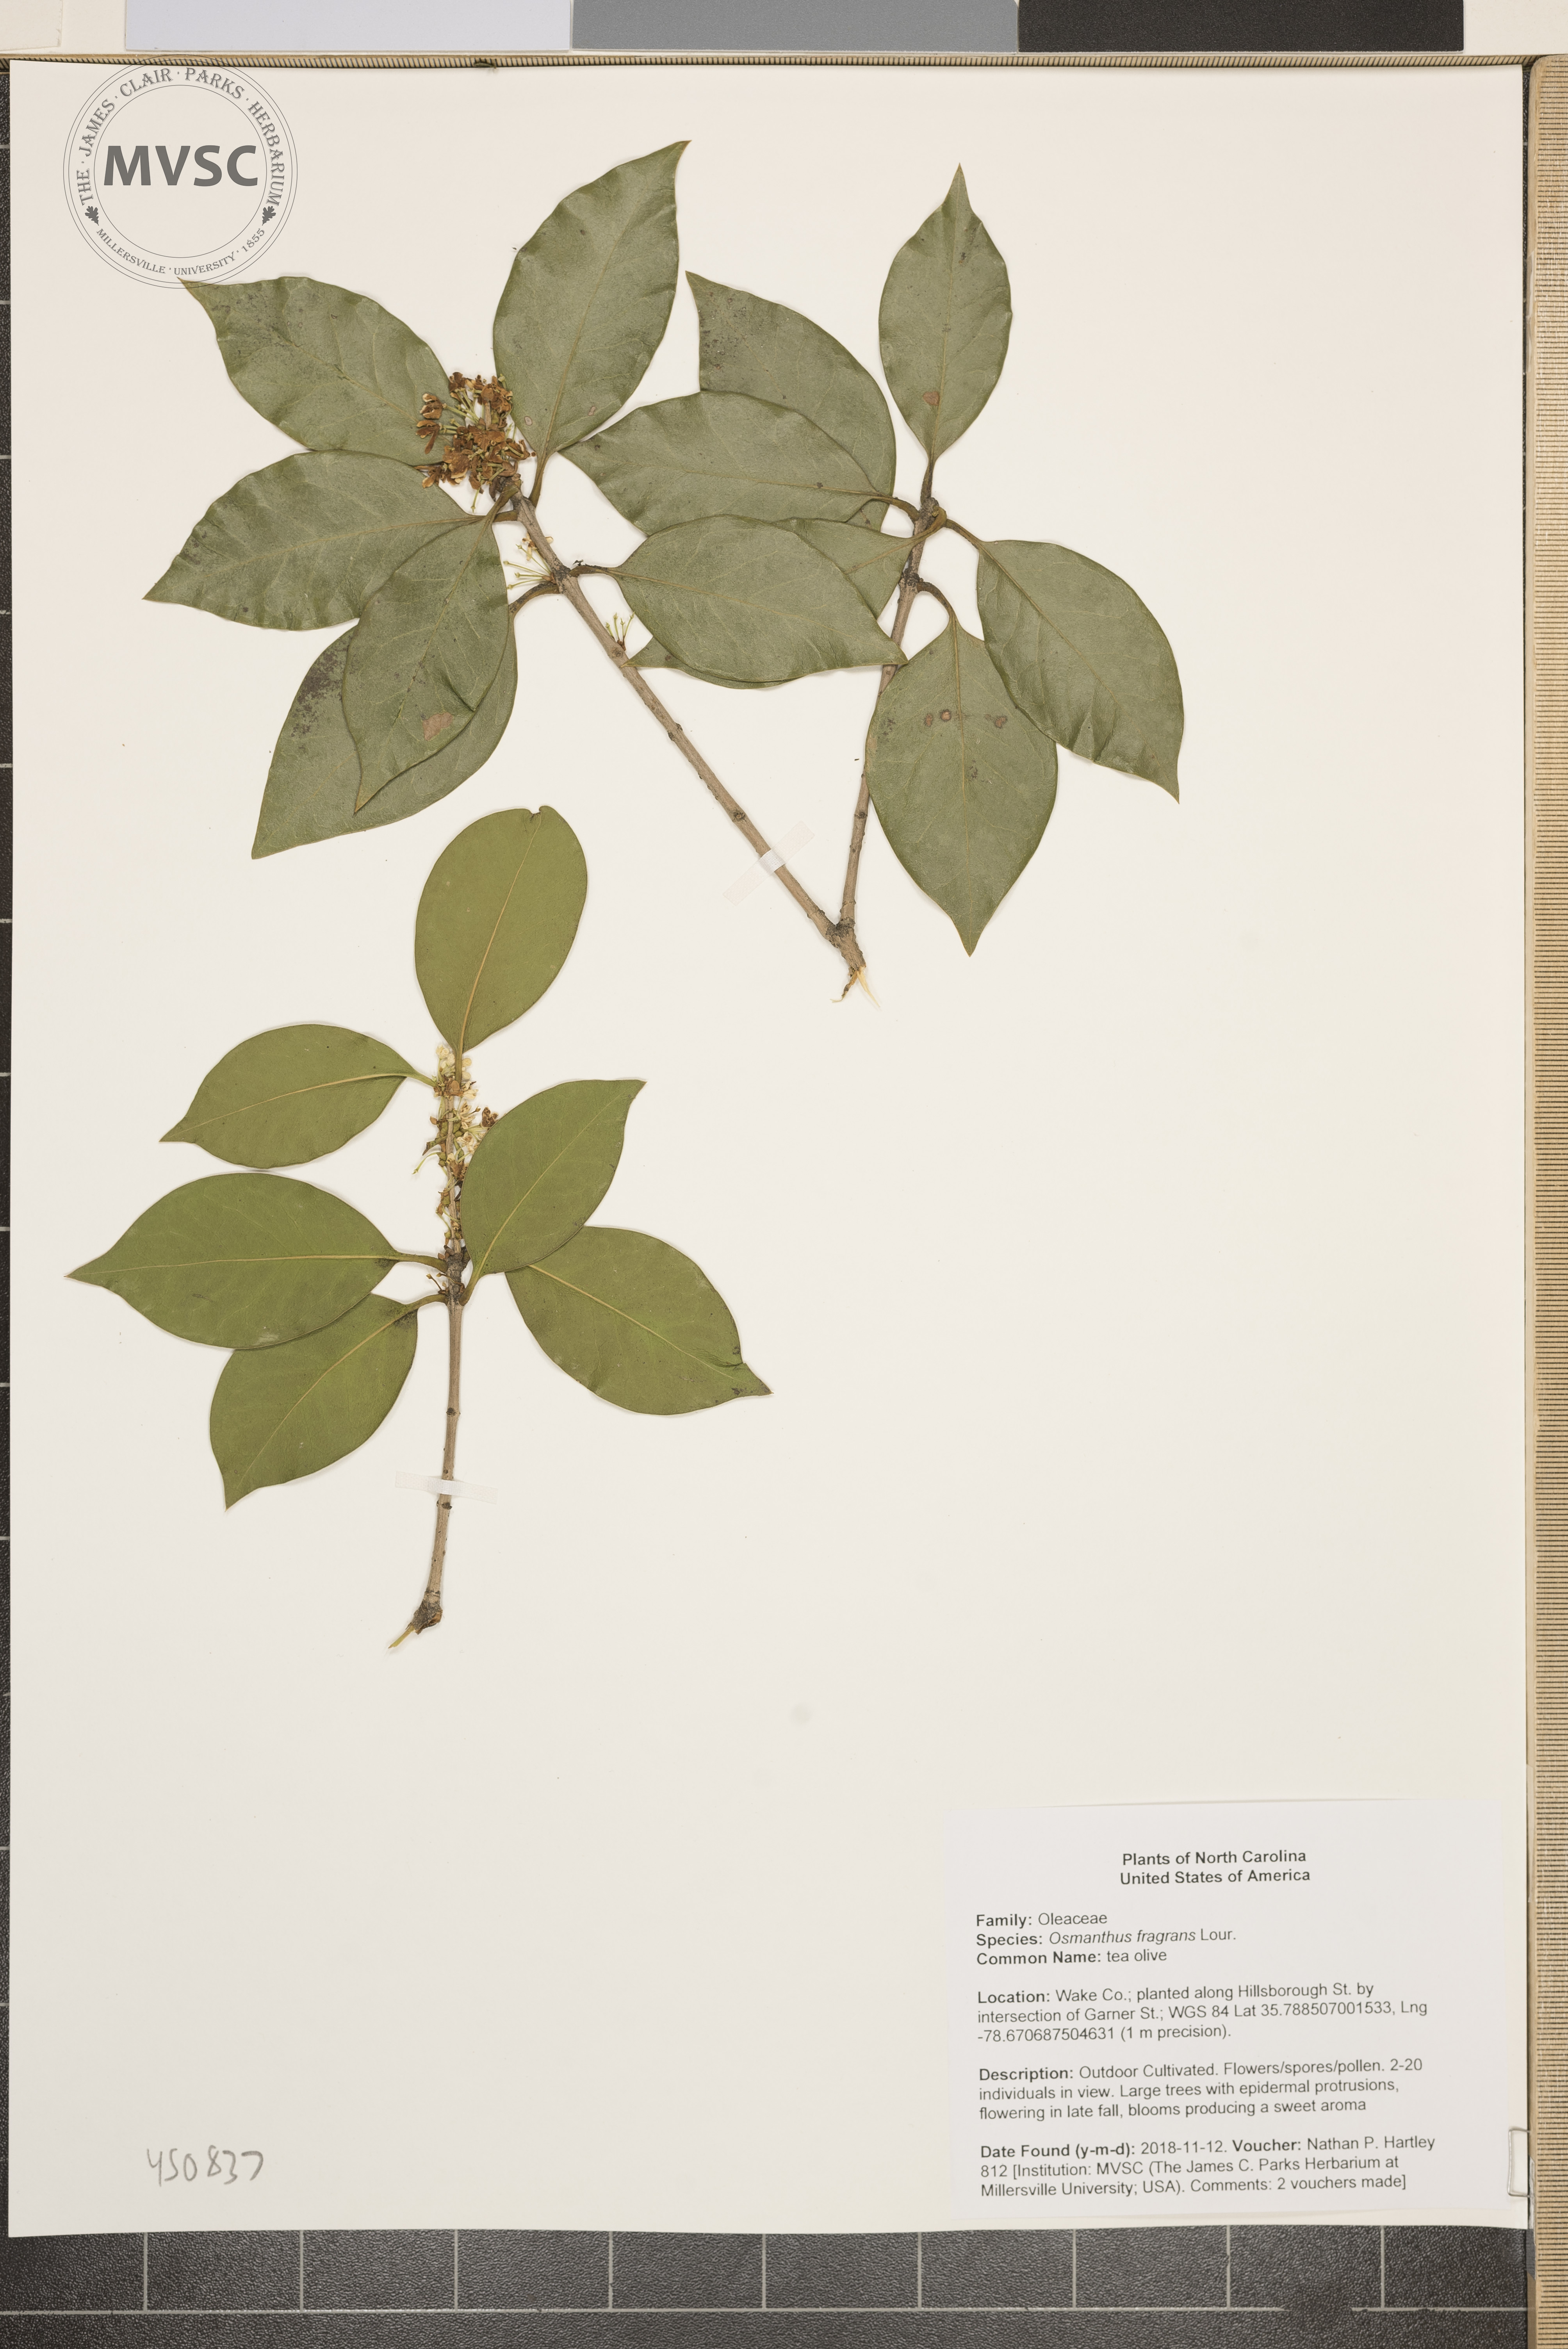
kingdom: Plantae
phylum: Tracheophyta
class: Magnoliopsida
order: Lamiales
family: Oleaceae
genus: Osmanthus
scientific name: Osmanthus fragrans
